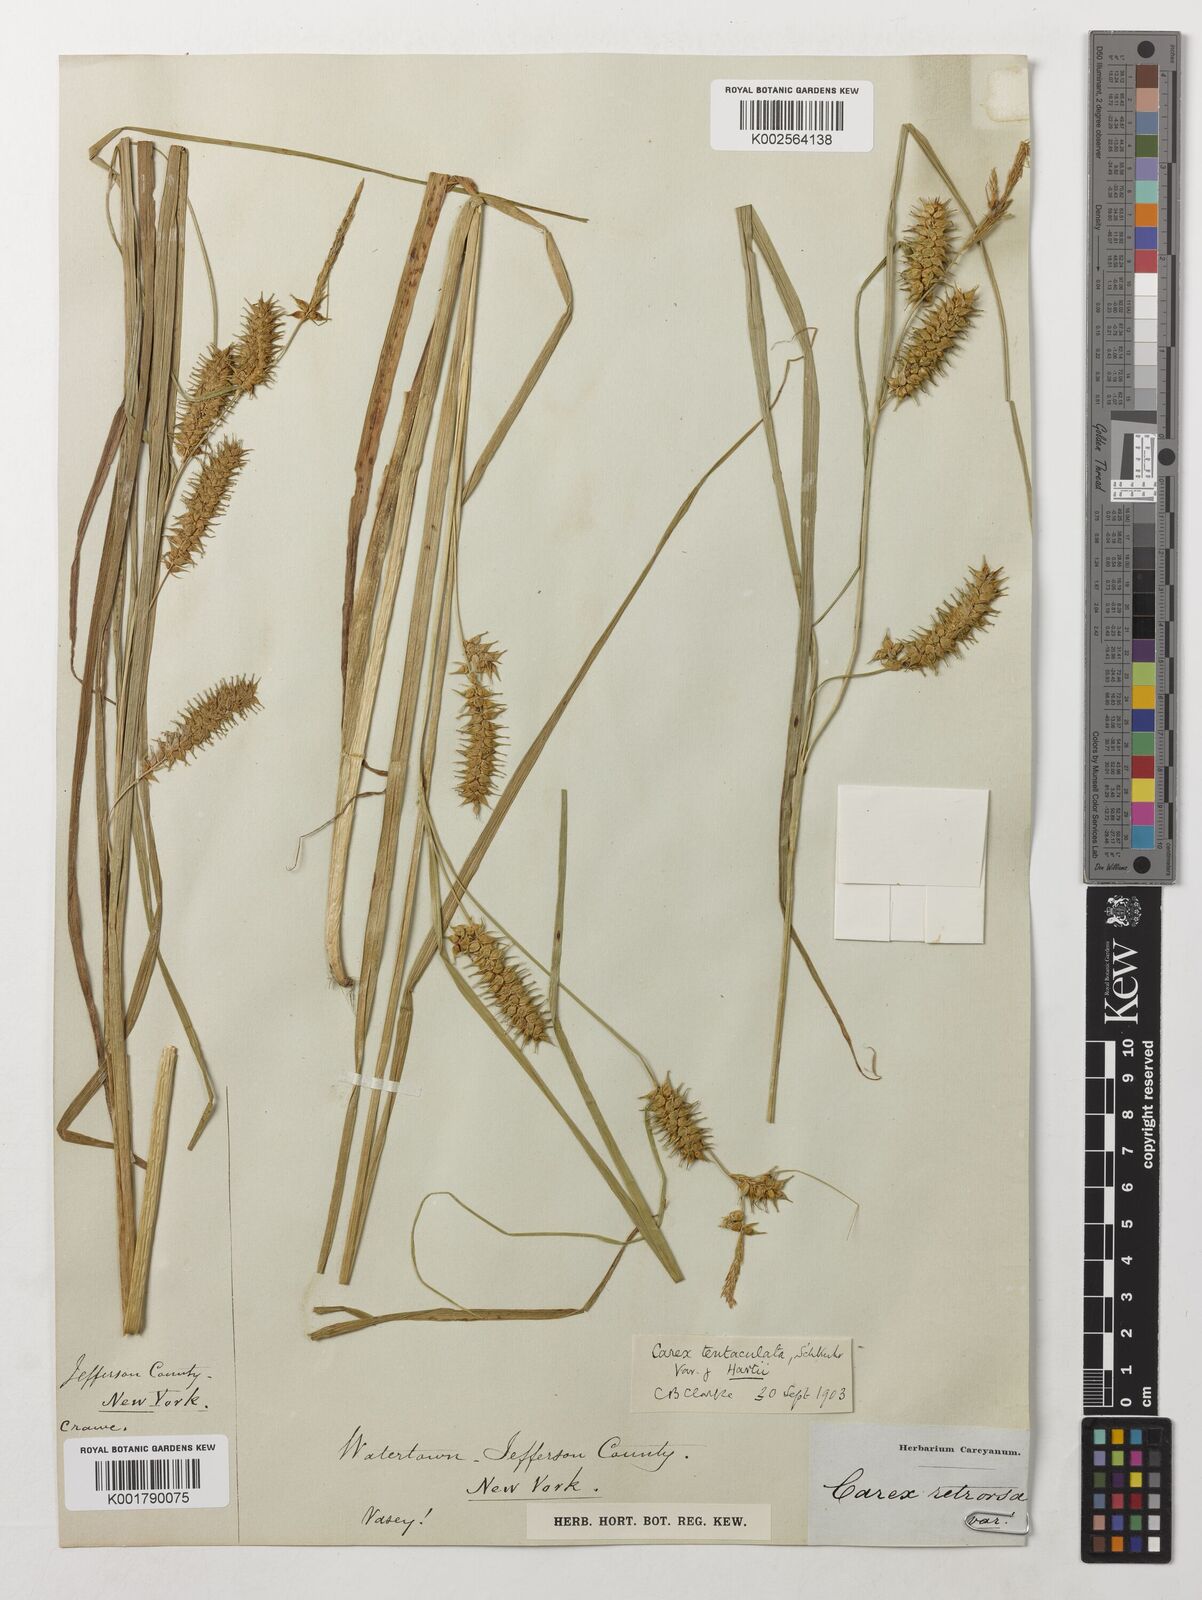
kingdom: Plantae
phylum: Tracheophyta
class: Liliopsida
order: Poales
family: Cyperaceae
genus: Carex
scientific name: Carex lurida
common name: Sallow sedge
